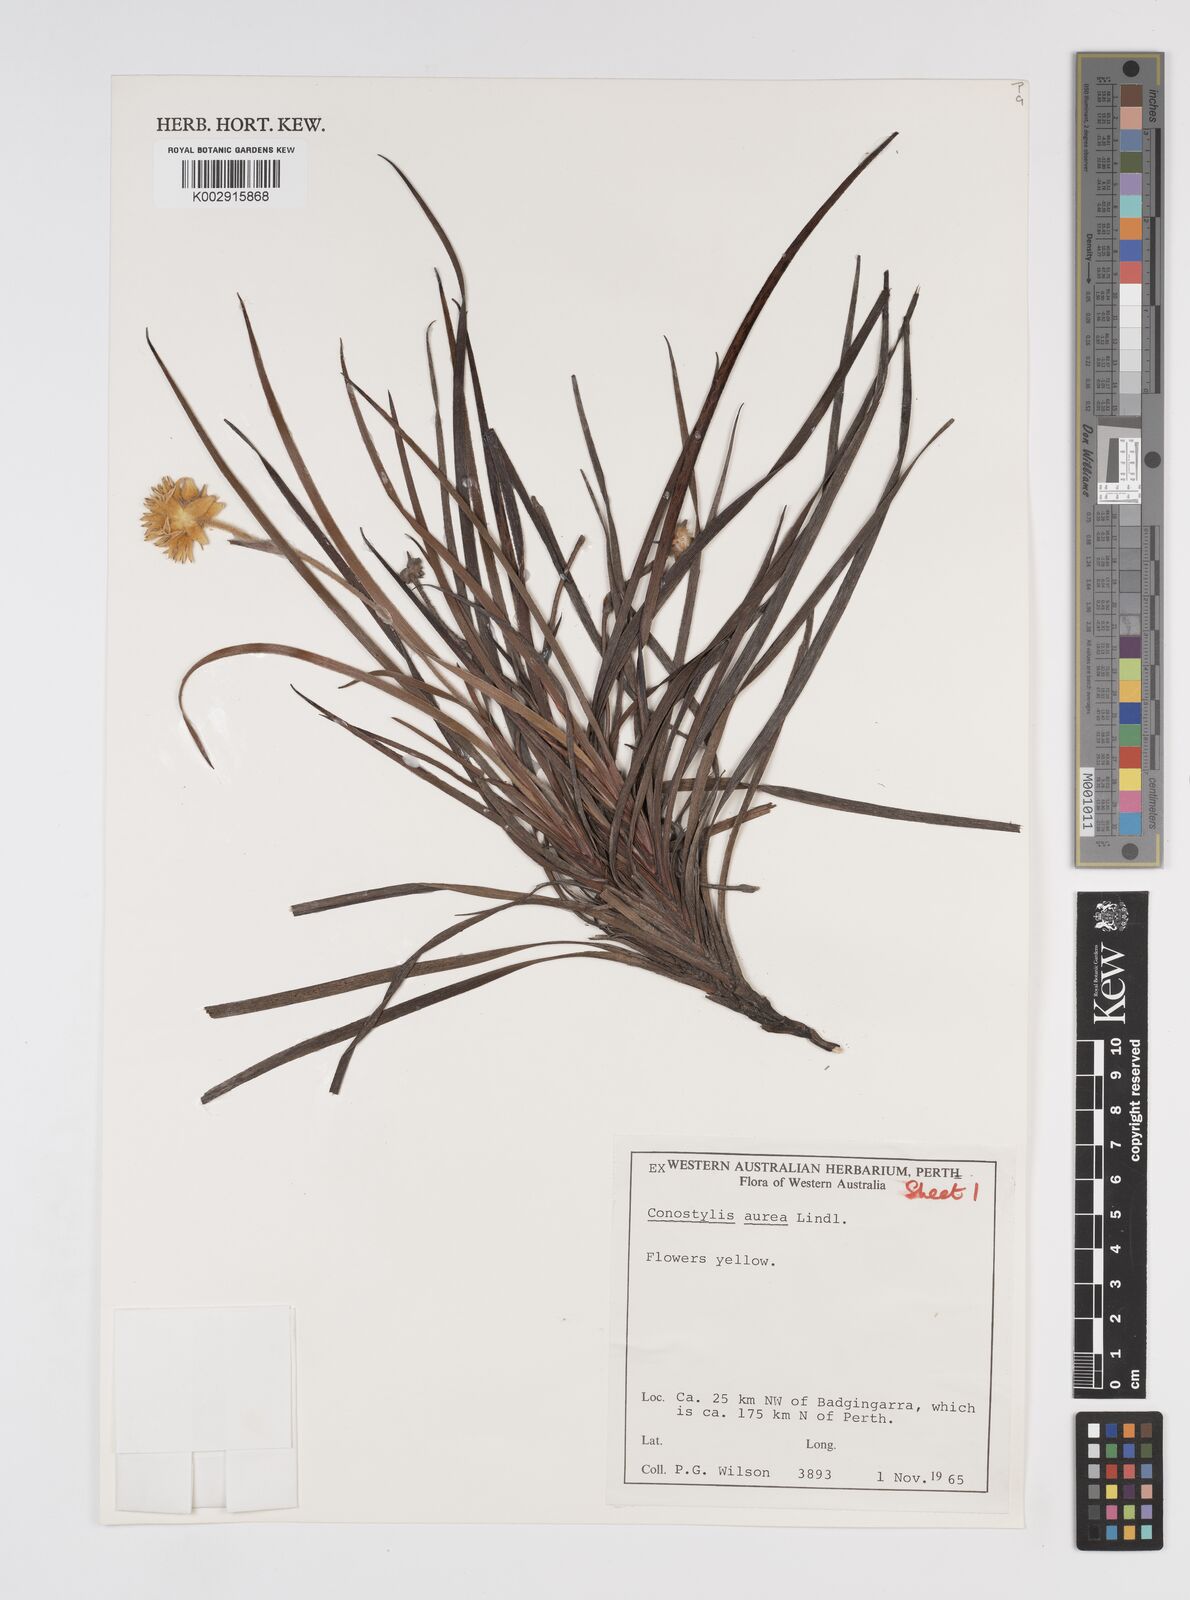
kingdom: Plantae
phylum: Tracheophyta
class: Liliopsida
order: Commelinales
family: Haemodoraceae
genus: Conostylis
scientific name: Conostylis aurea
